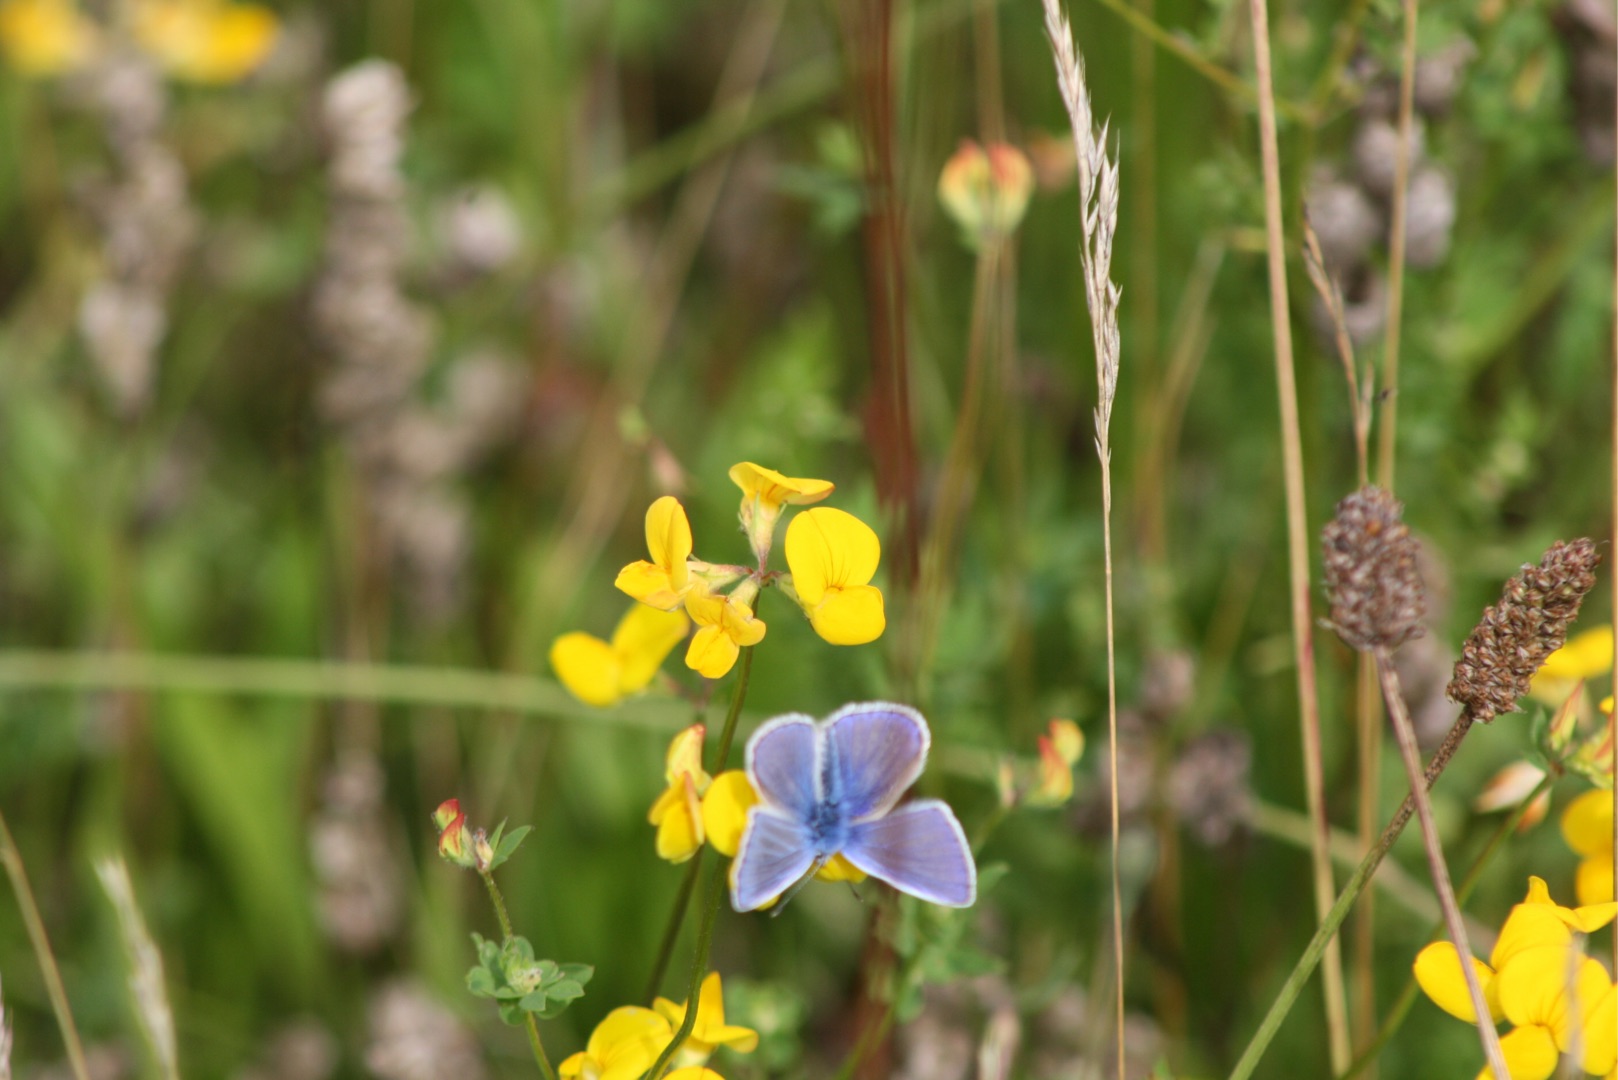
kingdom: Animalia
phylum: Arthropoda
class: Insecta
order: Lepidoptera
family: Lycaenidae
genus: Polyommatus
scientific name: Polyommatus icarus
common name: Almindelig blåfugl
